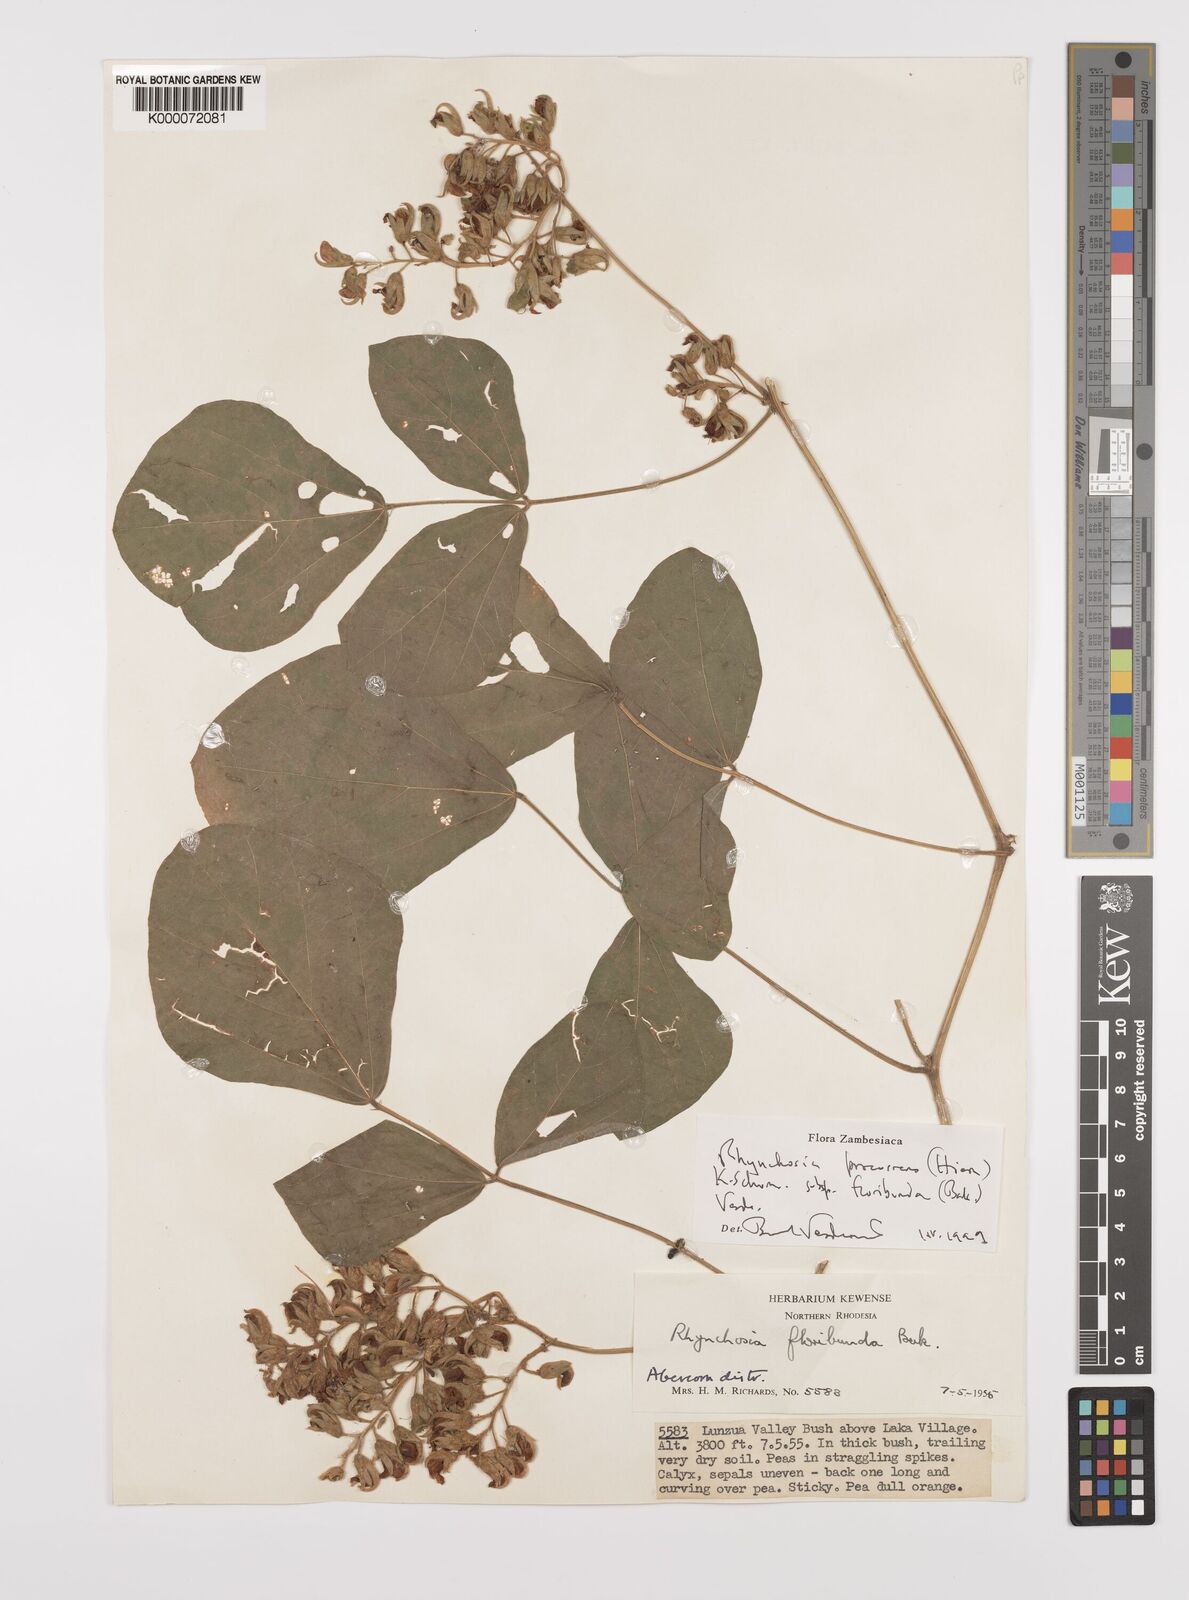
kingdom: Plantae
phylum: Tracheophyta
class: Magnoliopsida
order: Fabales
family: Fabaceae
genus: Rhynchosia
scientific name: Rhynchosia procurrens
